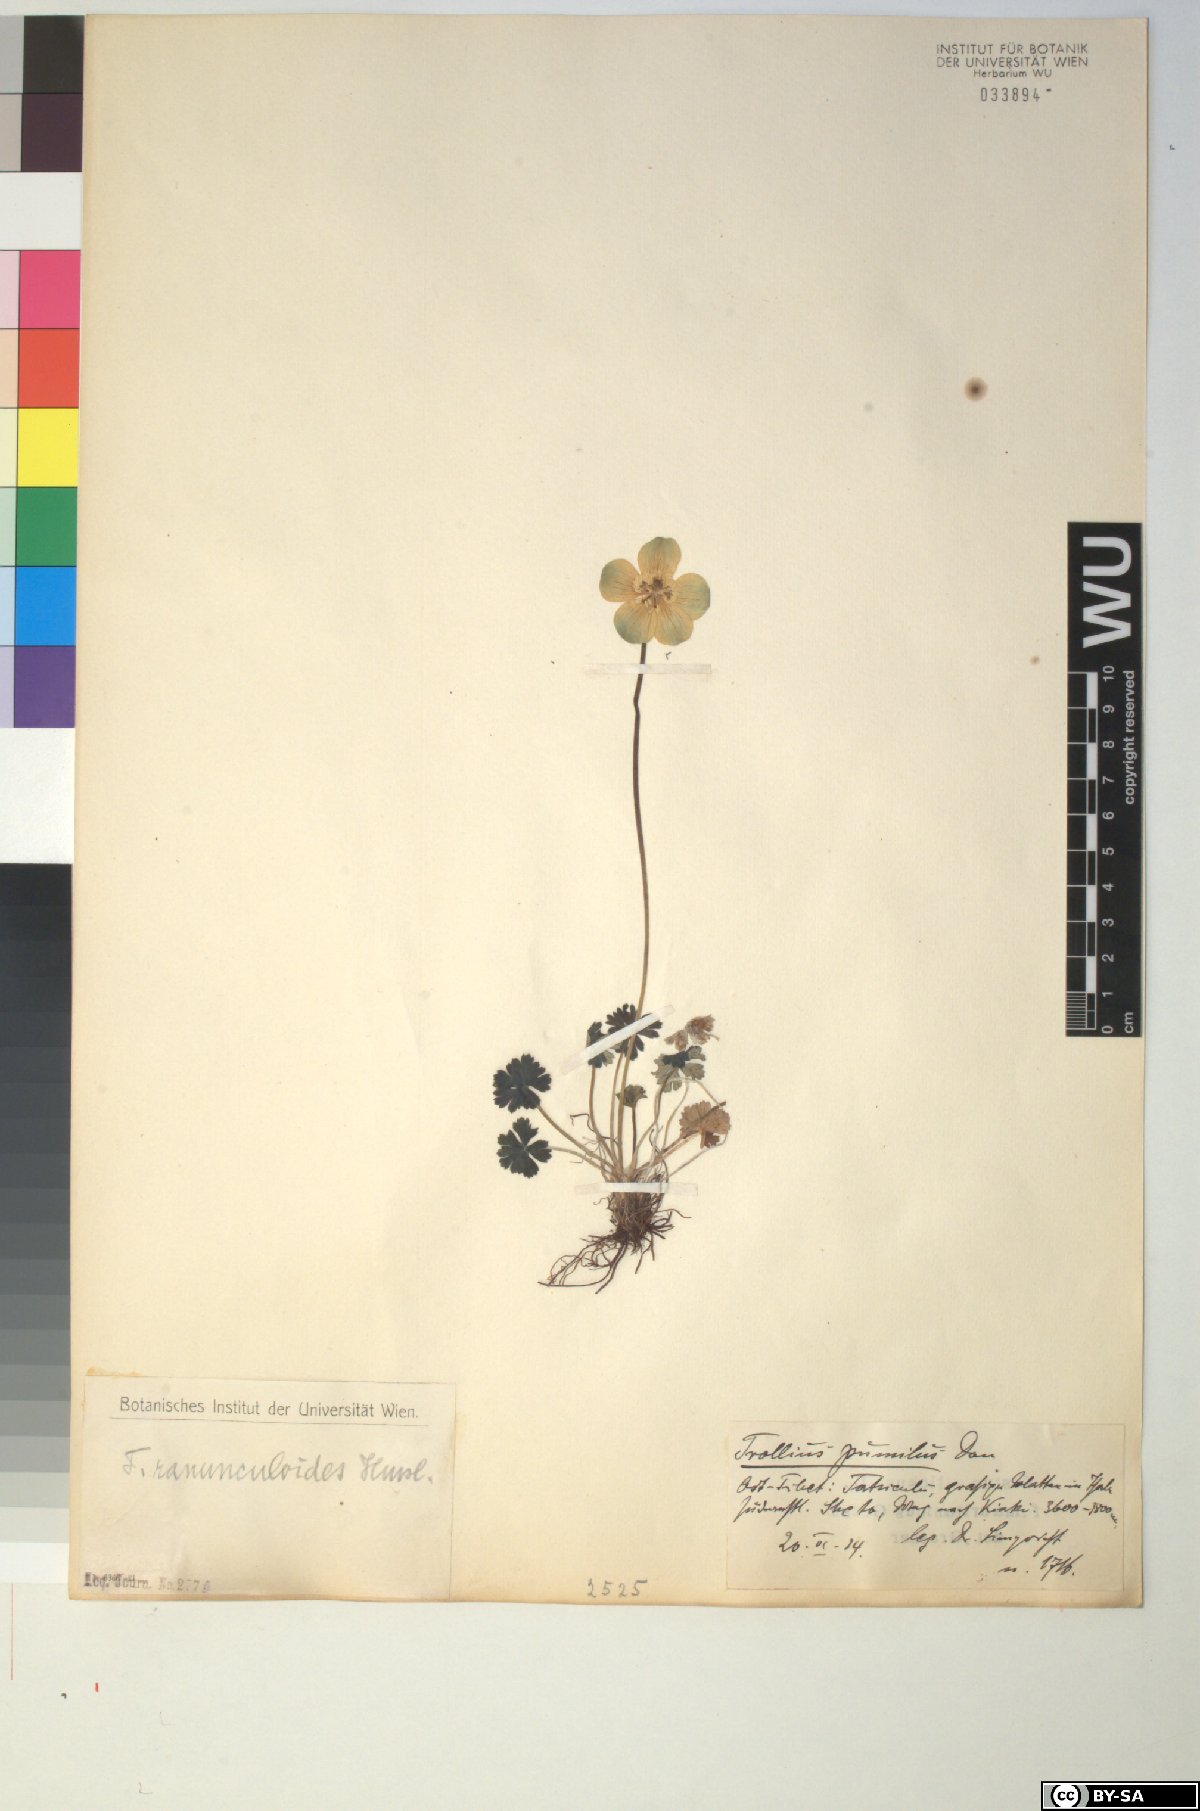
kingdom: Plantae
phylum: Tracheophyta
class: Magnoliopsida
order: Ranunculales
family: Ranunculaceae
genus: Trollius
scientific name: Trollius ranunculoides
